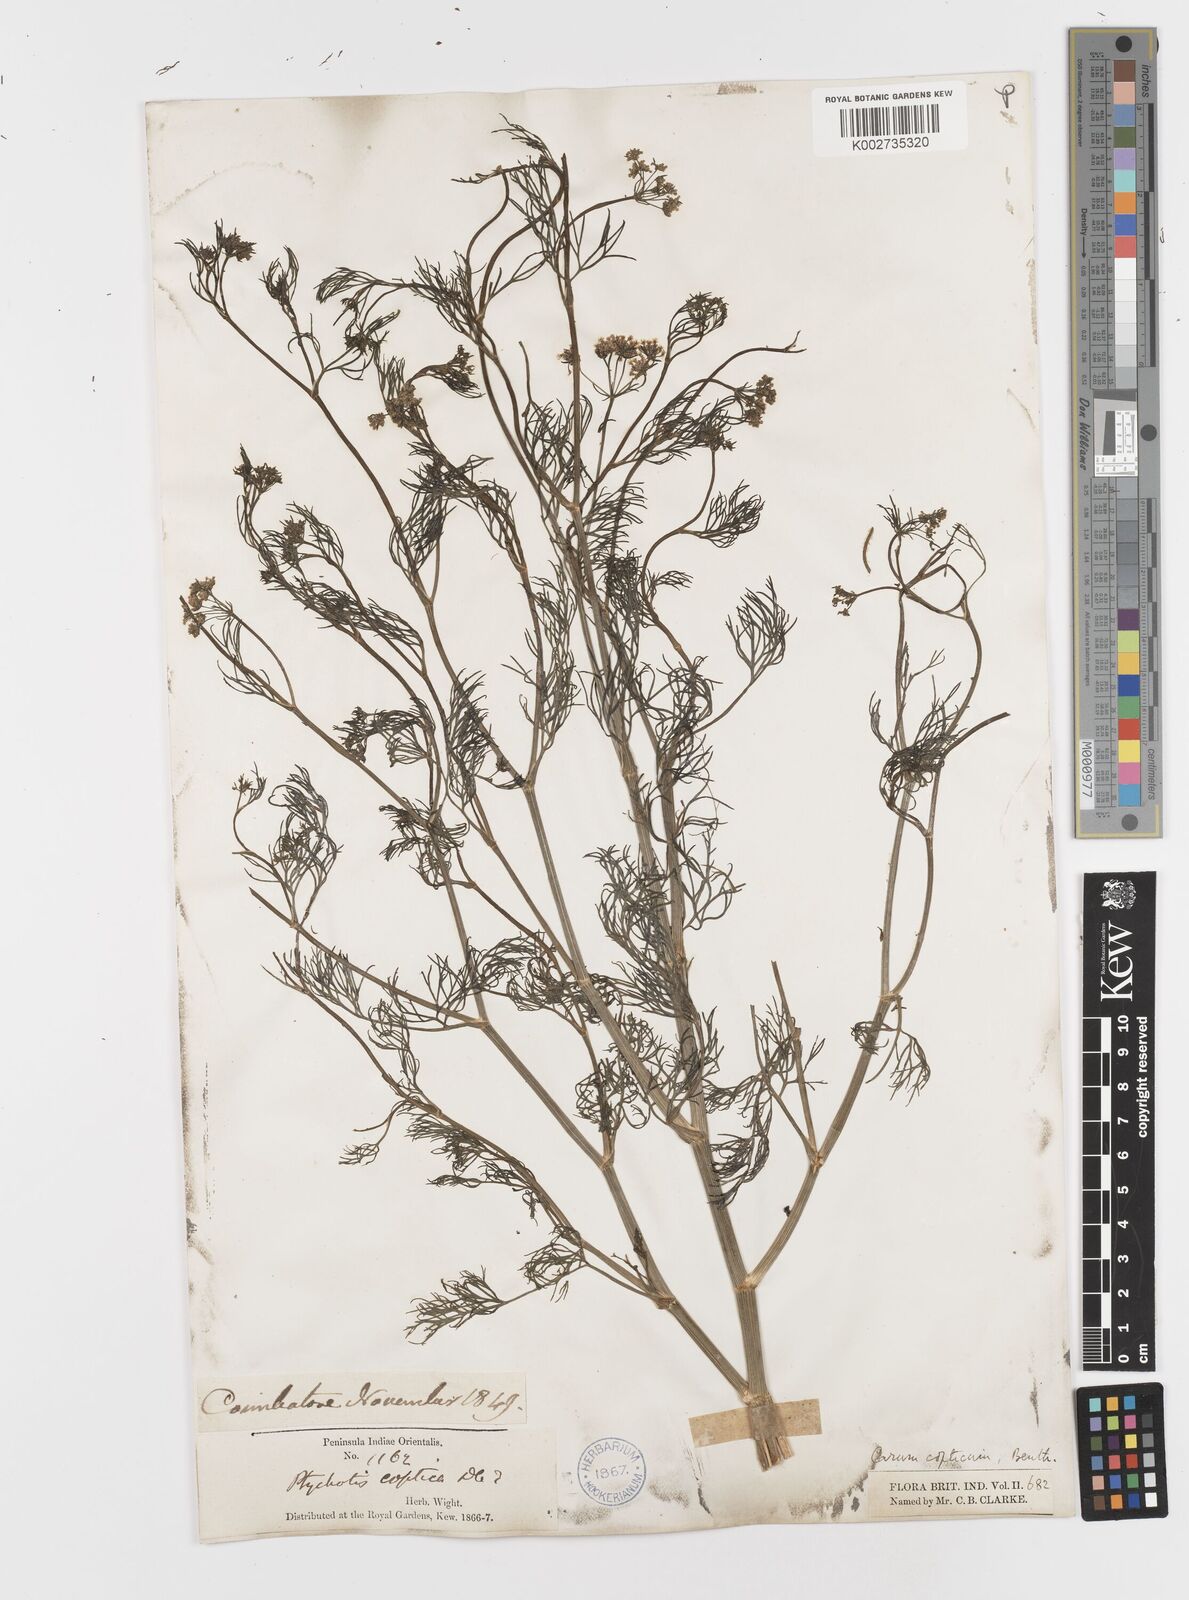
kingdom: Plantae
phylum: Tracheophyta
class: Magnoliopsida
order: Apiales
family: Apiaceae
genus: Trachyspermum
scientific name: Trachyspermum ammi
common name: Ajowan
